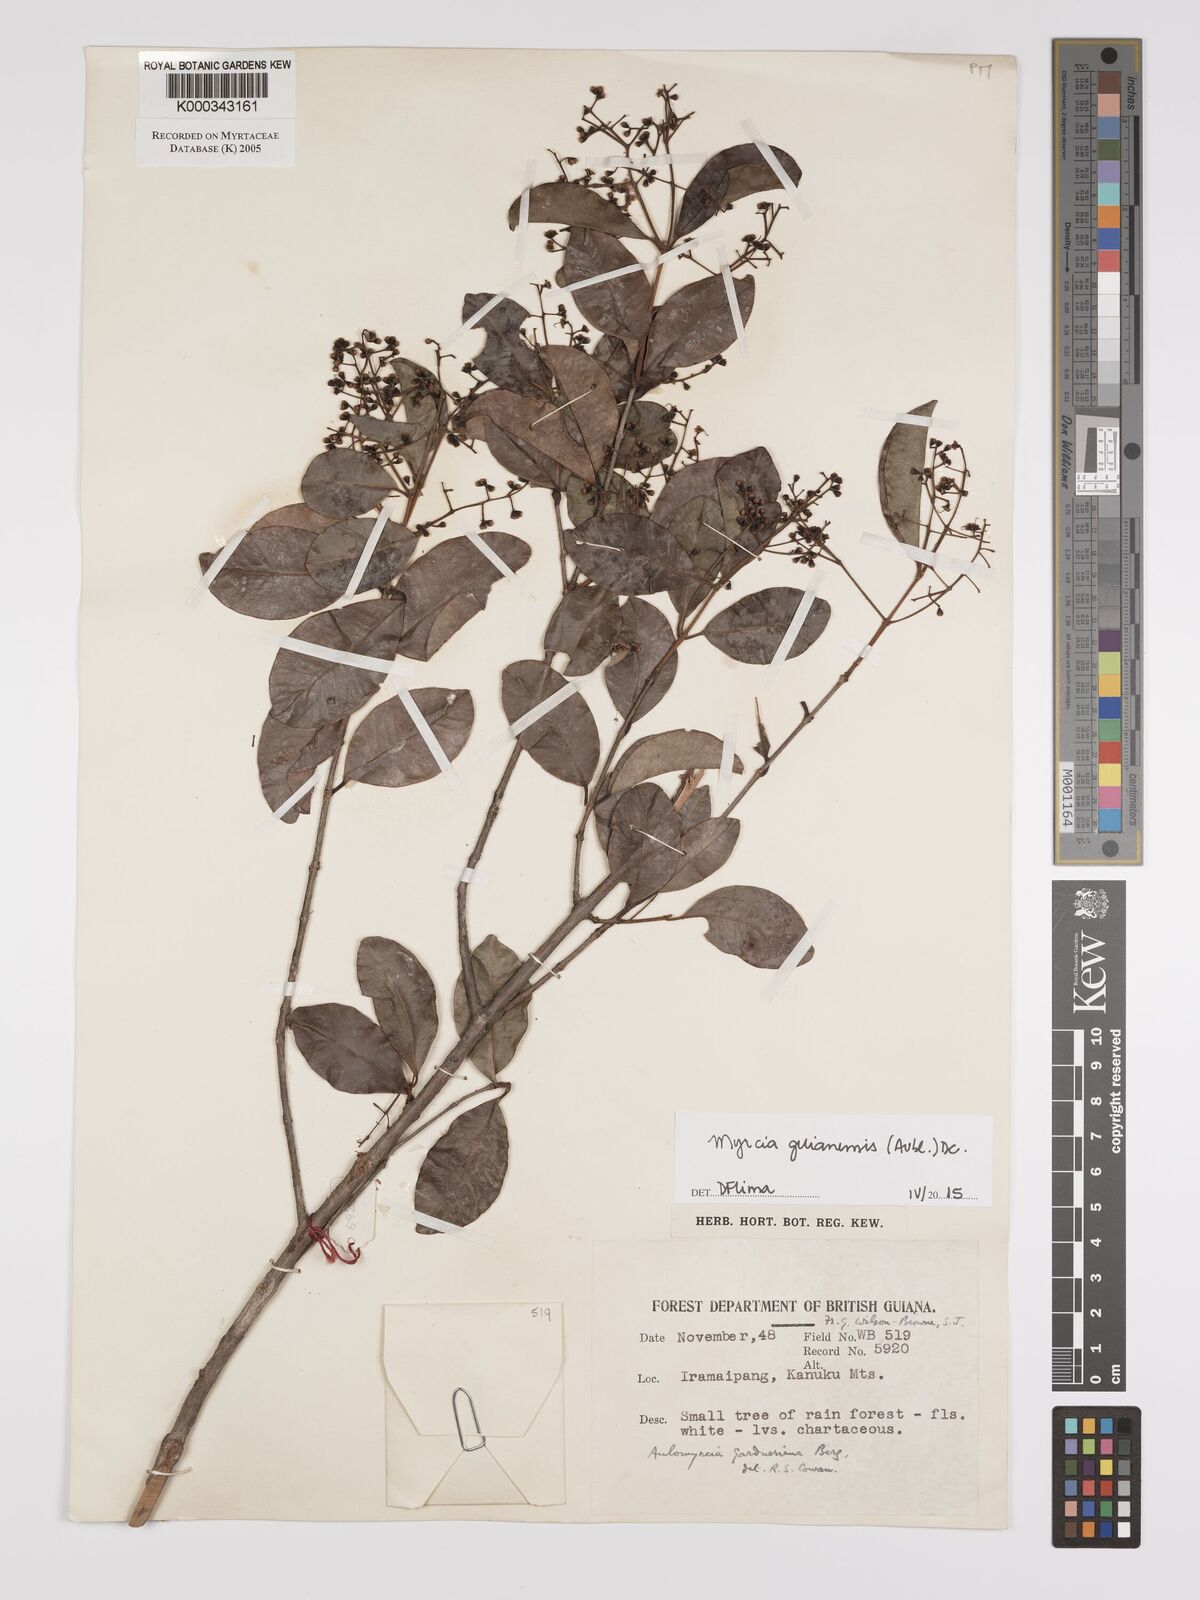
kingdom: Plantae
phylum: Tracheophyta
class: Magnoliopsida
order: Myrtales
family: Myrtaceae
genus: Myrcia
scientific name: Myrcia guianensis
